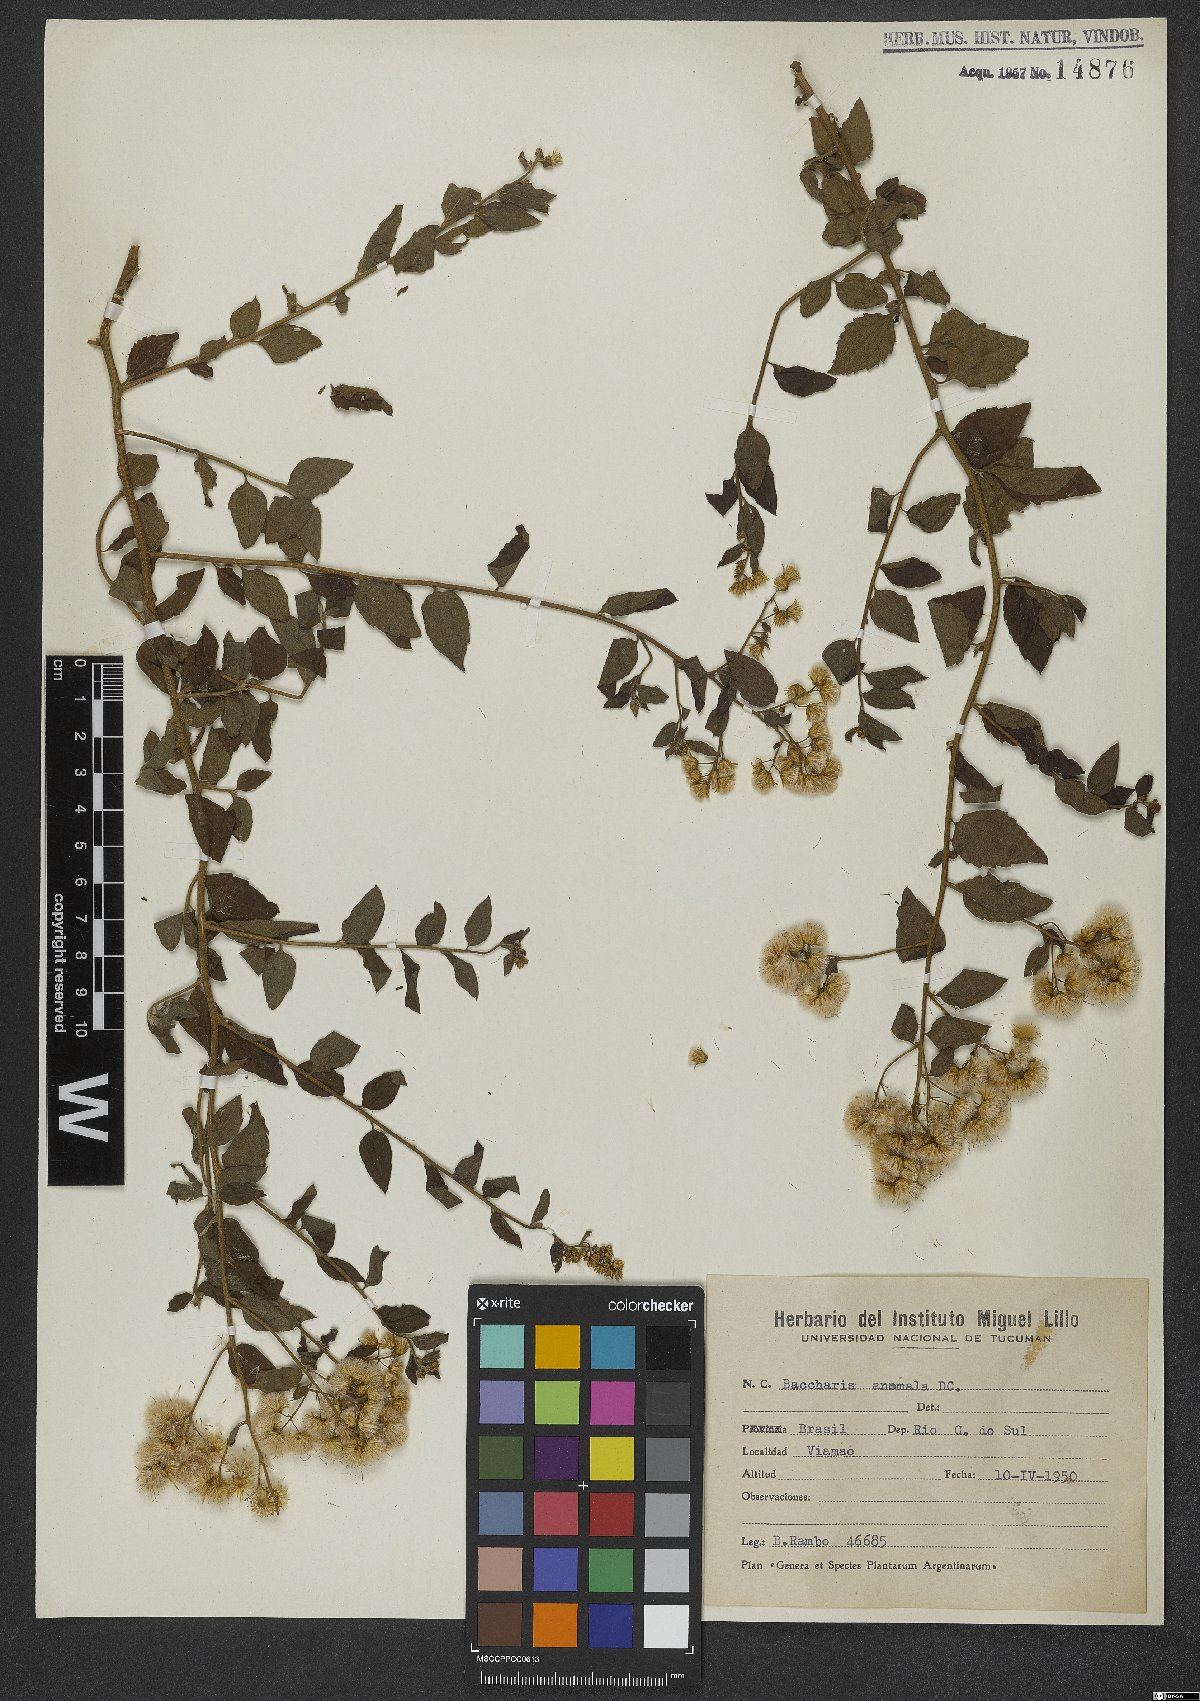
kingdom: Plantae
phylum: Tracheophyta
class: Magnoliopsida
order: Asterales
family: Asteraceae
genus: Baccharis
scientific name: Baccharis anomala
